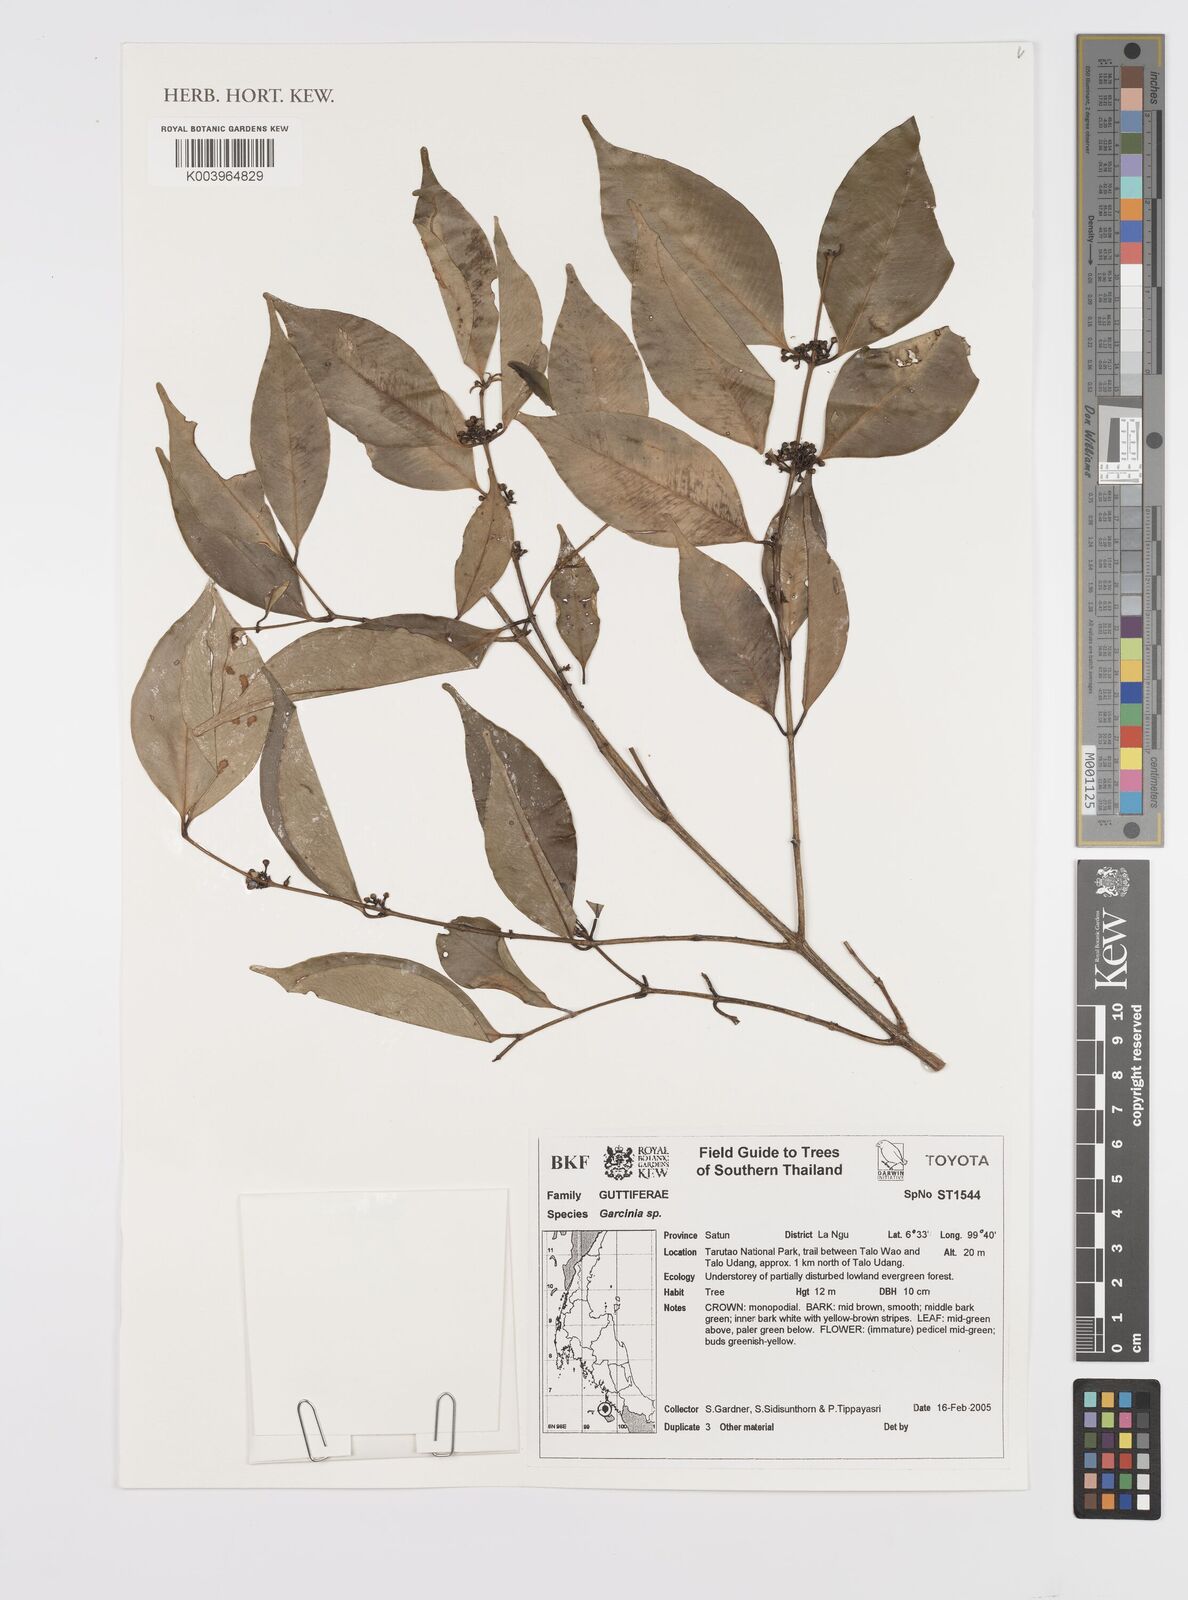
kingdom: Plantae
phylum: Tracheophyta
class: Magnoliopsida
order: Malpighiales
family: Clusiaceae
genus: Garcinia
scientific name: Garcinia
